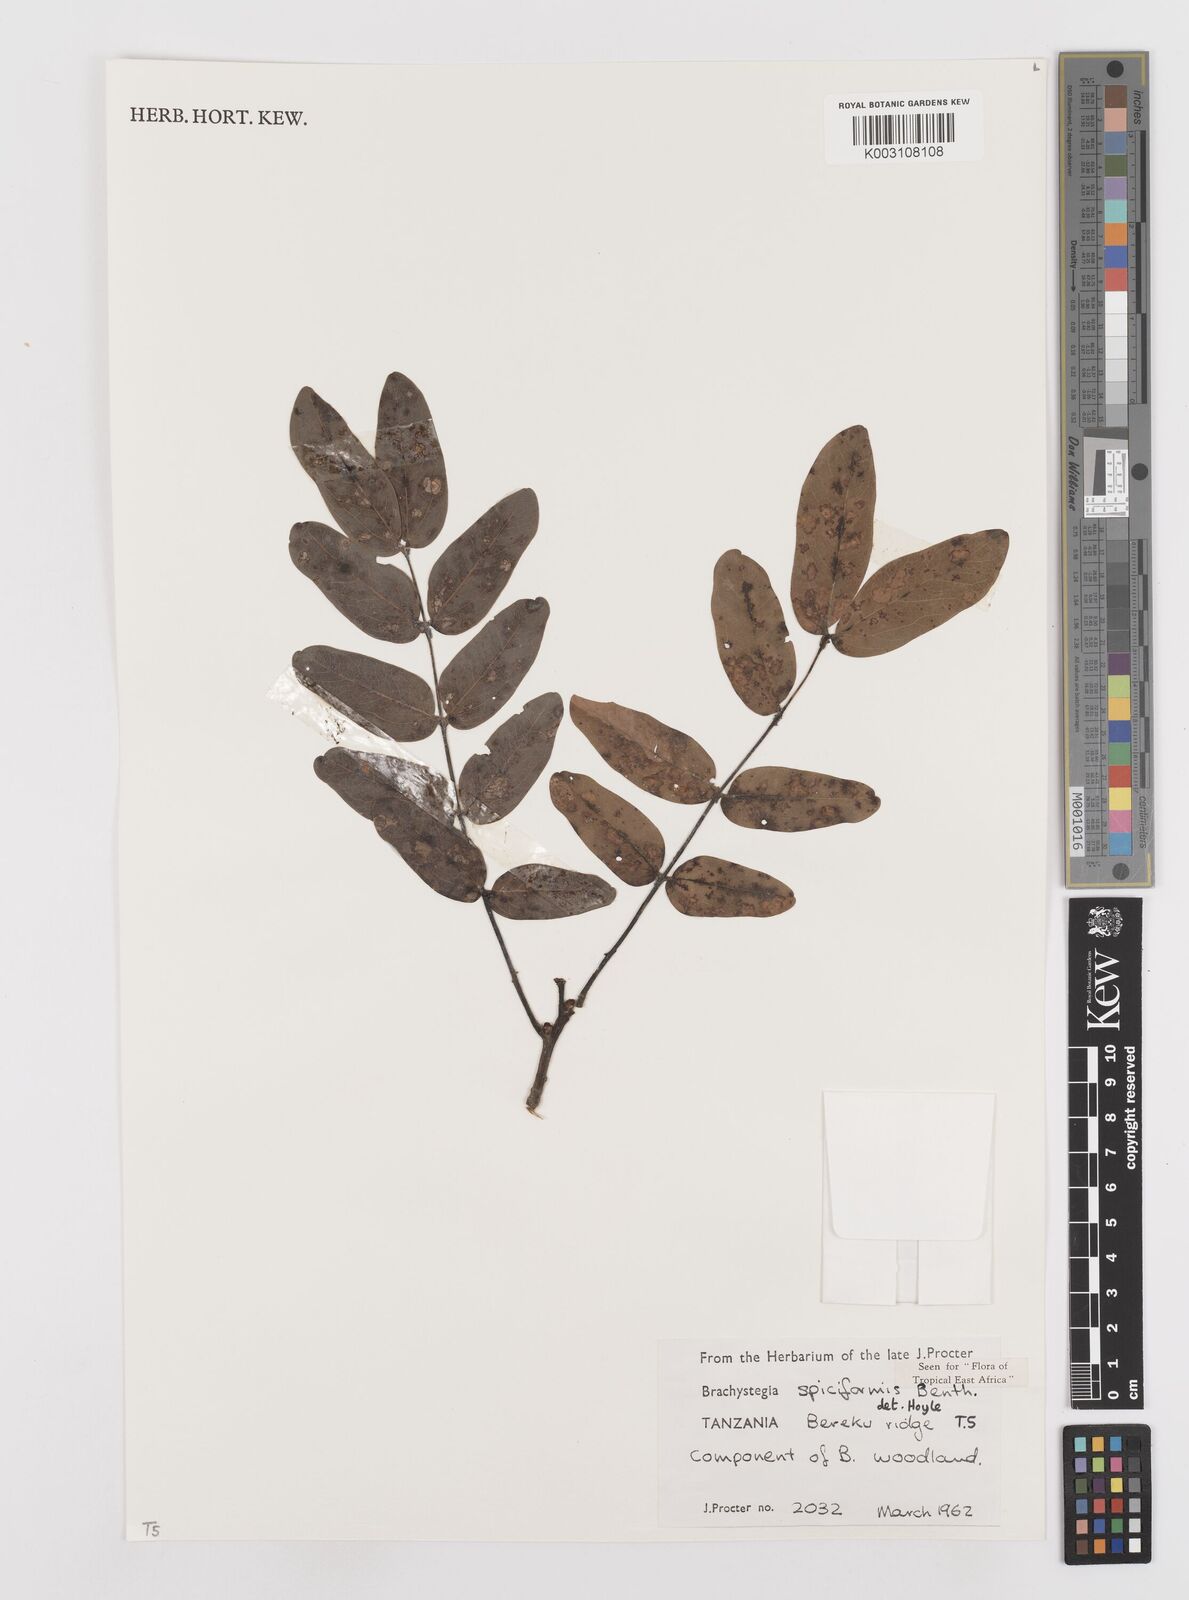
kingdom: Plantae
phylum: Tracheophyta
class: Magnoliopsida
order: Fabales
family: Fabaceae
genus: Brachystegia
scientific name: Brachystegia spiciformis
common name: Zebrawood
